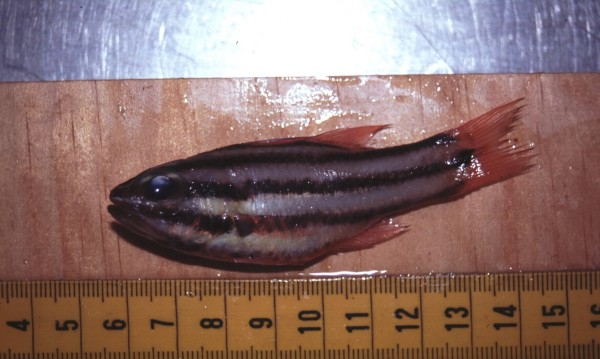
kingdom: Animalia
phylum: Chordata
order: Perciformes
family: Apogonidae
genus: Ostorhinchus
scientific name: Ostorhinchus angustatus
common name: Narrow-striped cardinalfish
